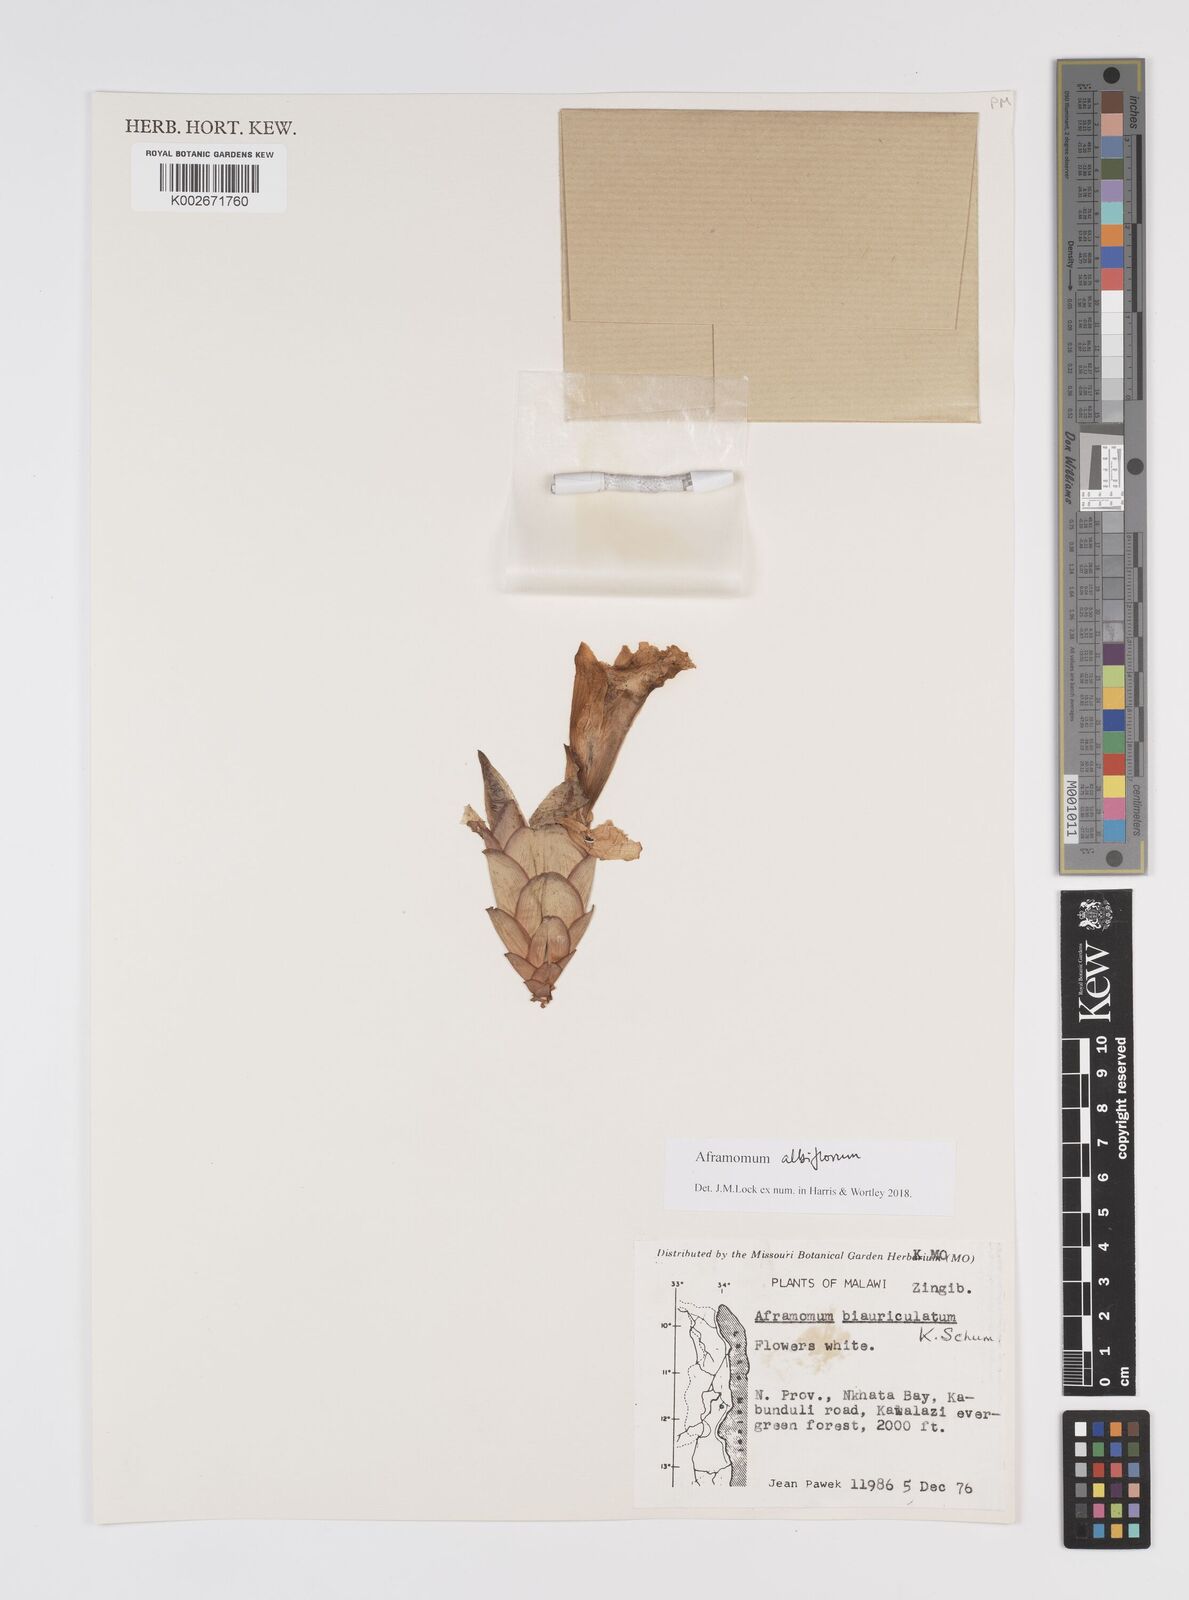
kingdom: Plantae
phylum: Tracheophyta
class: Liliopsida
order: Zingiberales
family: Zingiberaceae
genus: Aframomum
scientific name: Aframomum albiflorum
